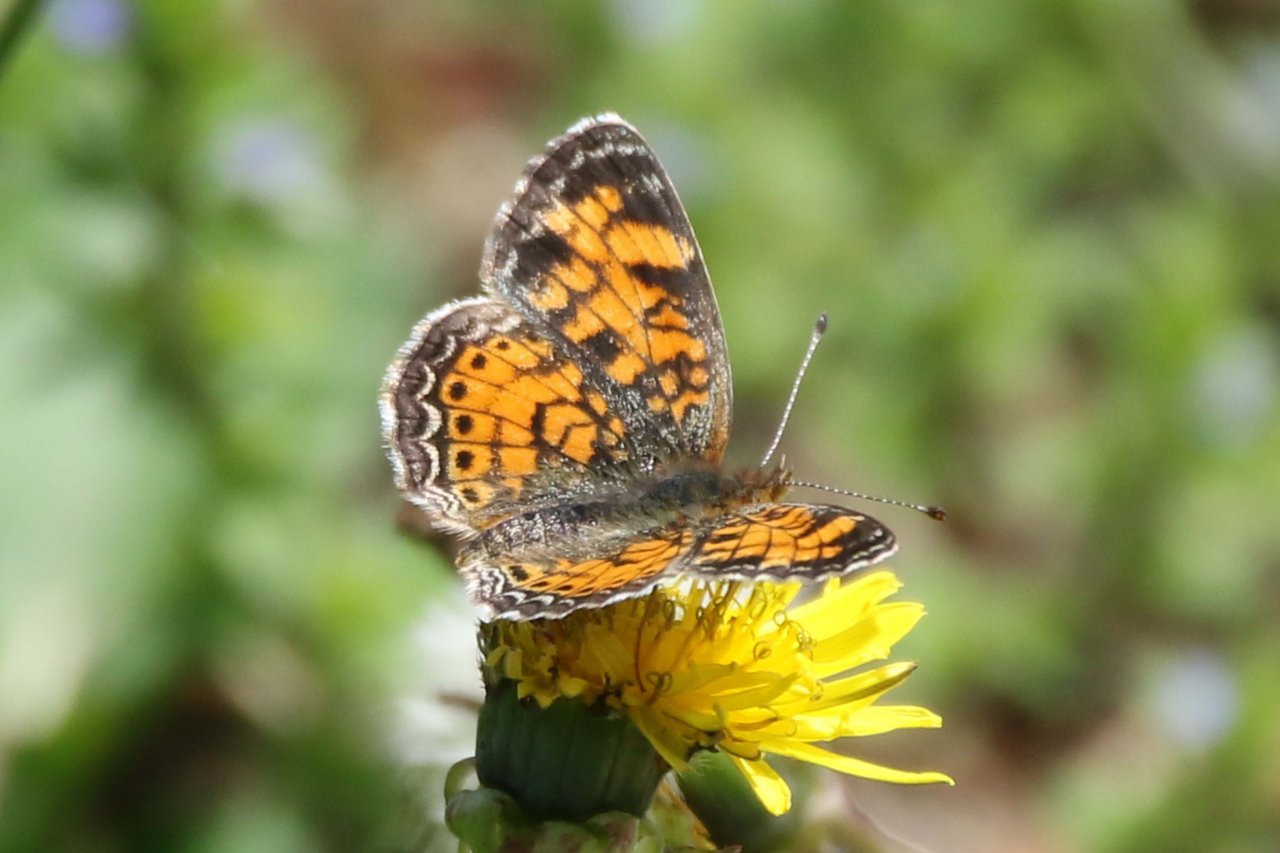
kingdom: Animalia
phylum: Arthropoda
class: Insecta
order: Lepidoptera
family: Nymphalidae
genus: Phyciodes
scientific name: Phyciodes tharos
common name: Pearl Crescent
